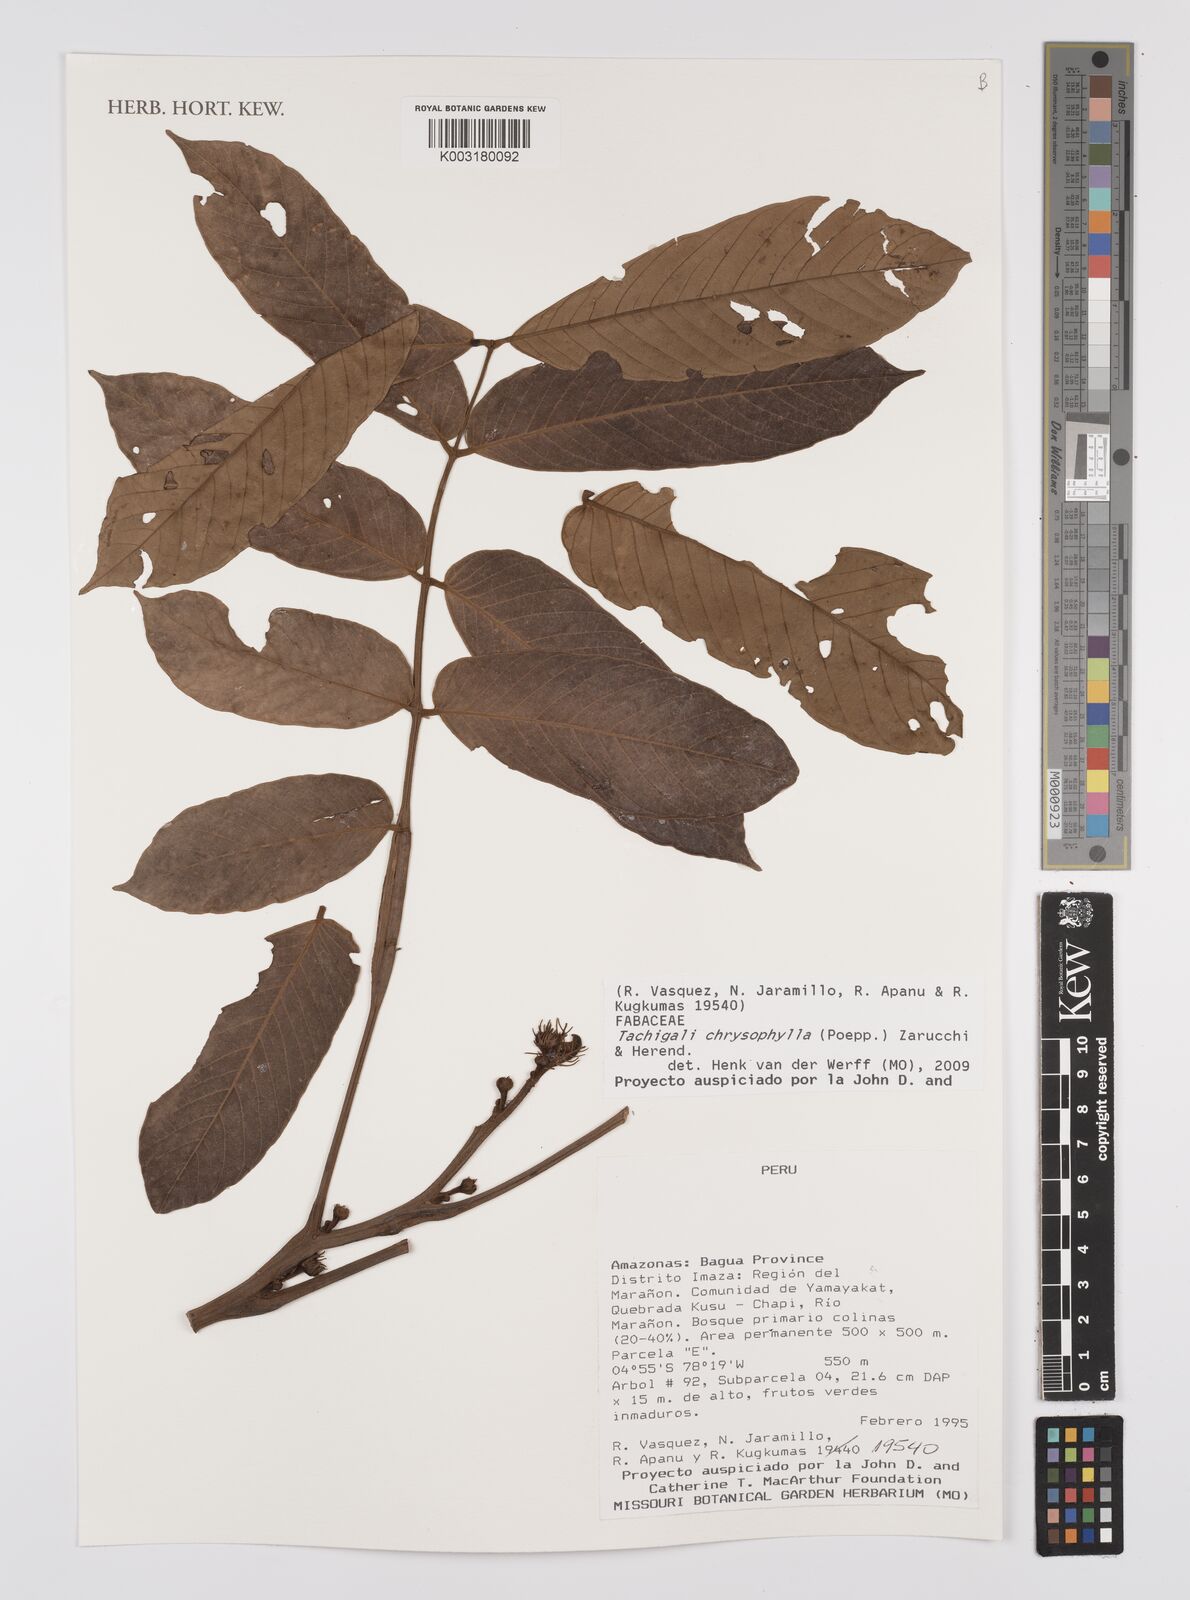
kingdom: Plantae
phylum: Tracheophyta
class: Magnoliopsida
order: Fabales
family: Fabaceae
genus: Tachigali
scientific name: Tachigali chrysophylla
